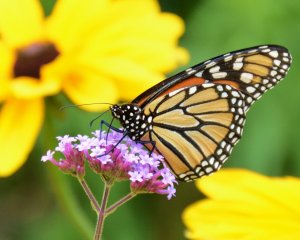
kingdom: Animalia
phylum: Arthropoda
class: Insecta
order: Lepidoptera
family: Nymphalidae
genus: Danaus
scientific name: Danaus plexippus
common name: Monarch
